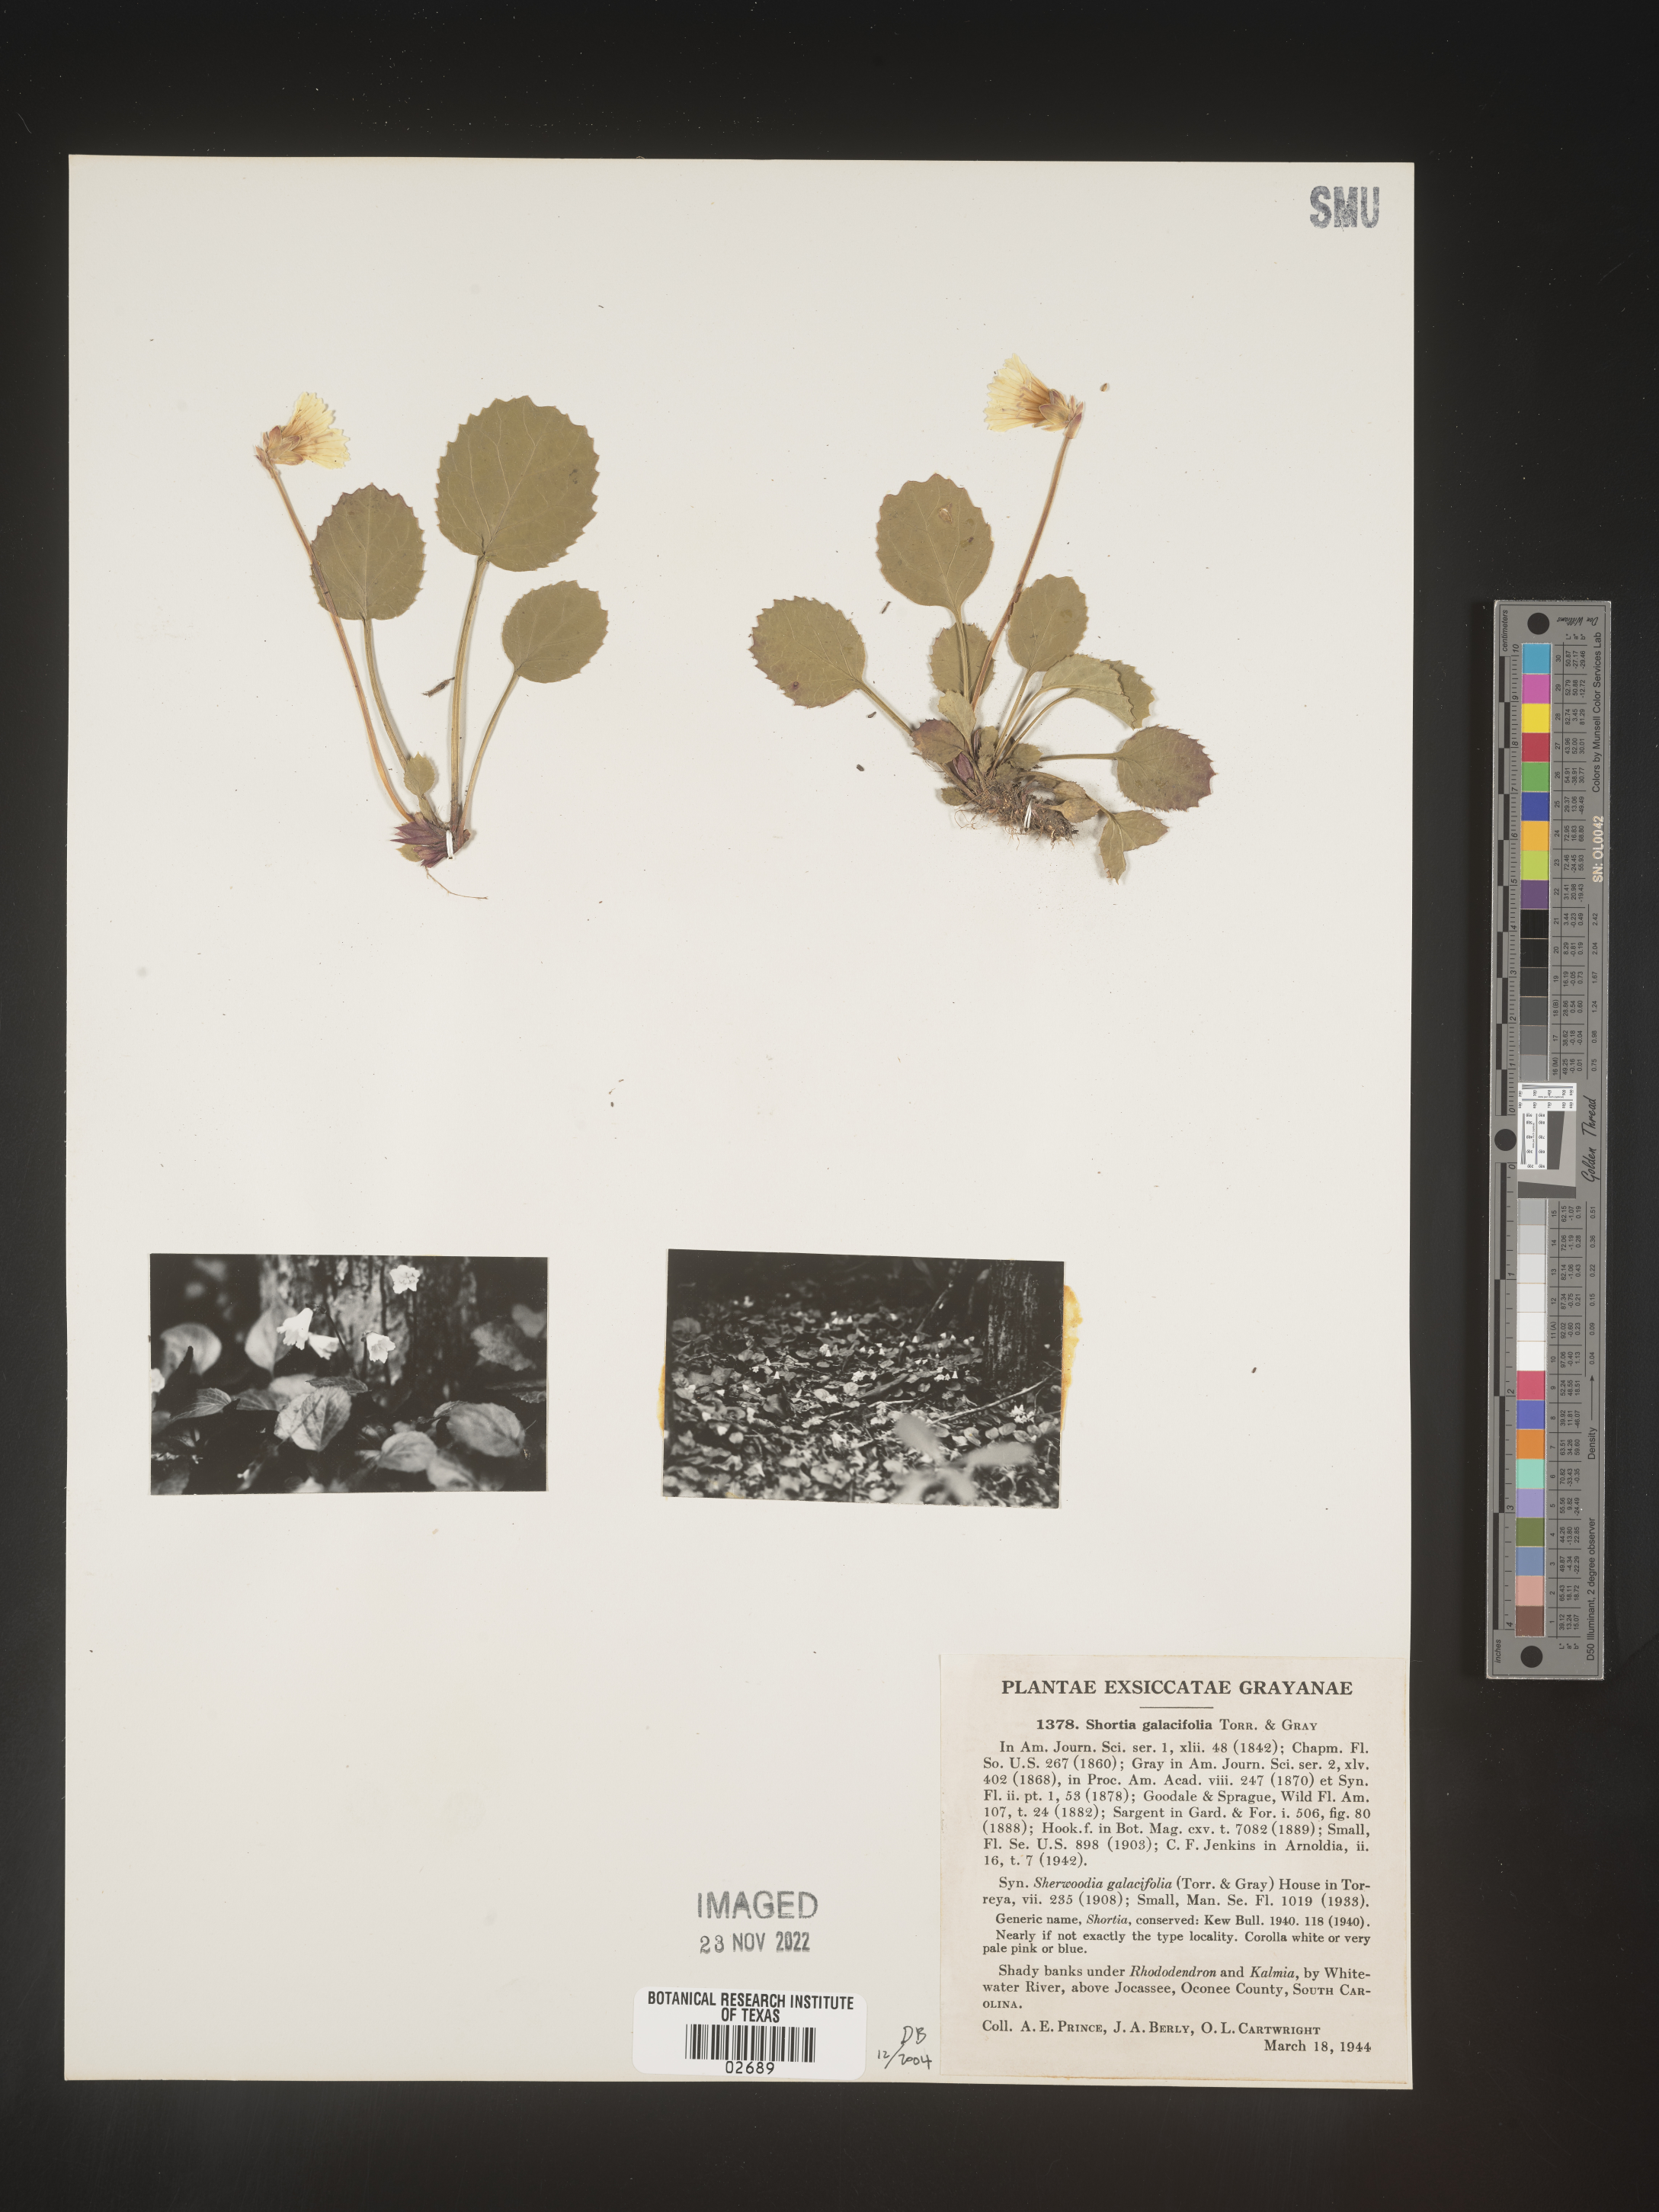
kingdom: Plantae
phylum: Tracheophyta
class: Magnoliopsida
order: Ericales
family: Diapensiaceae
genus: Shortia
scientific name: Shortia galacifolia
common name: Shortia
